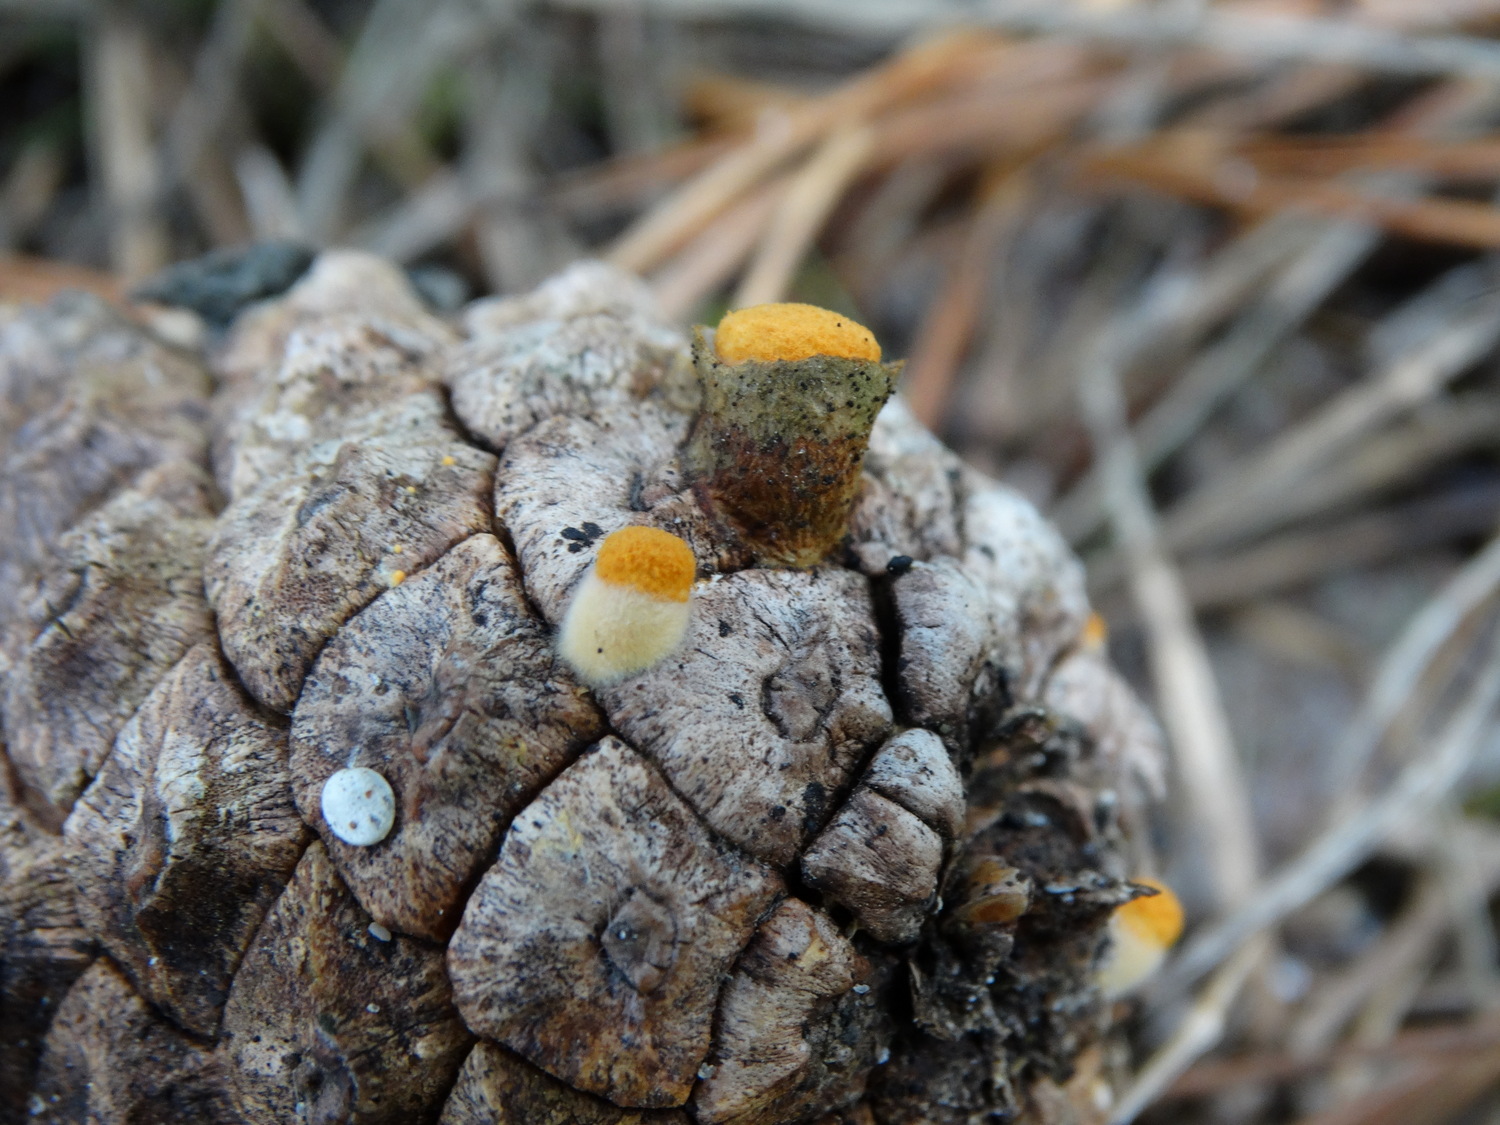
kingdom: Fungi
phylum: Basidiomycota
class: Agaricomycetes
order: Agaricales
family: Nidulariaceae
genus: Crucibulum
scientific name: Crucibulum crucibuliforme
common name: krukkesvamp
